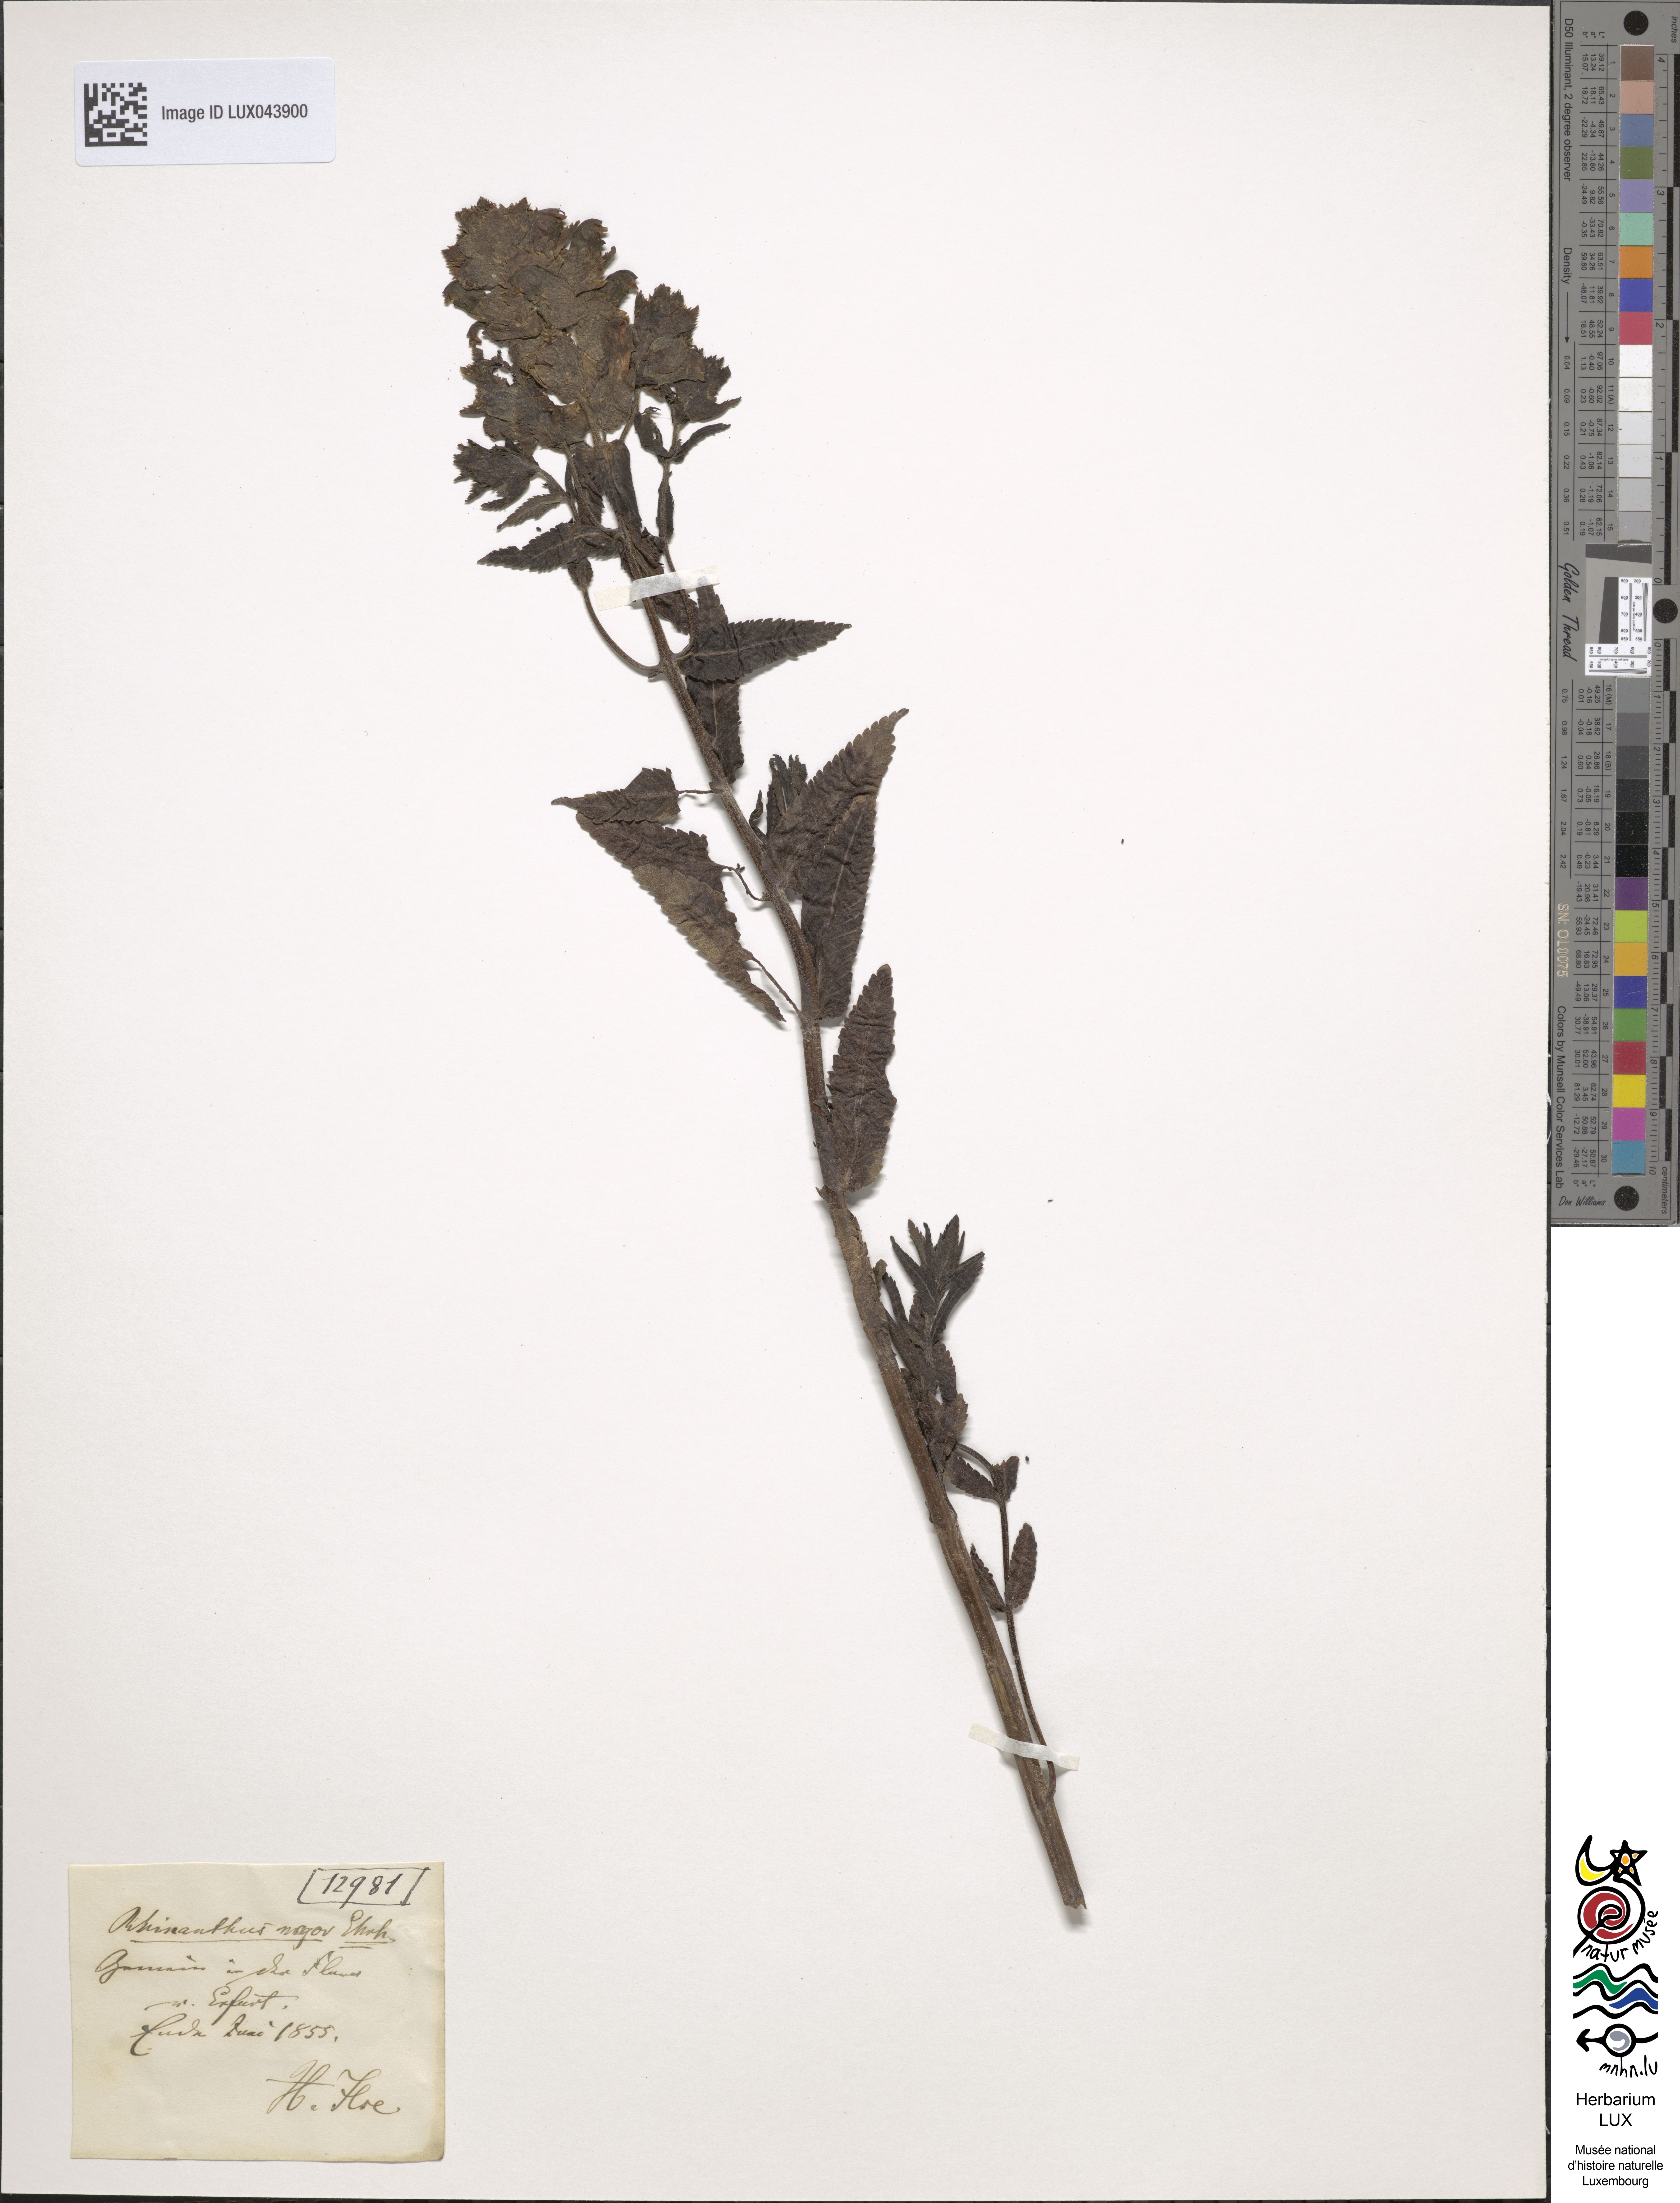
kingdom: Plantae
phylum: Tracheophyta
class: Magnoliopsida
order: Lamiales
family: Orobanchaceae
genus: Rhinanthus
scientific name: Rhinanthus
